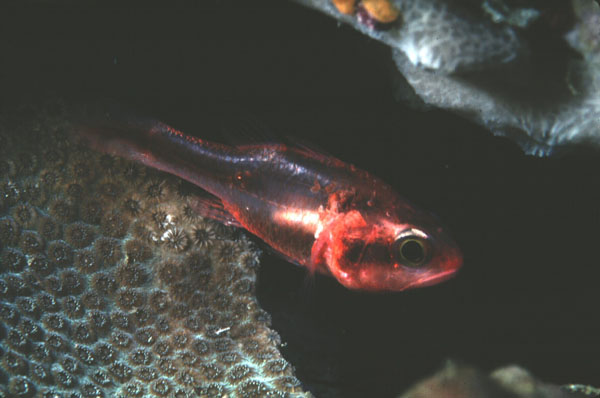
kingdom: Animalia
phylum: Chordata
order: Perciformes
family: Apogonidae
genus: Apogon
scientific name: Apogon semiornatus
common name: Threeband cardinalfish
